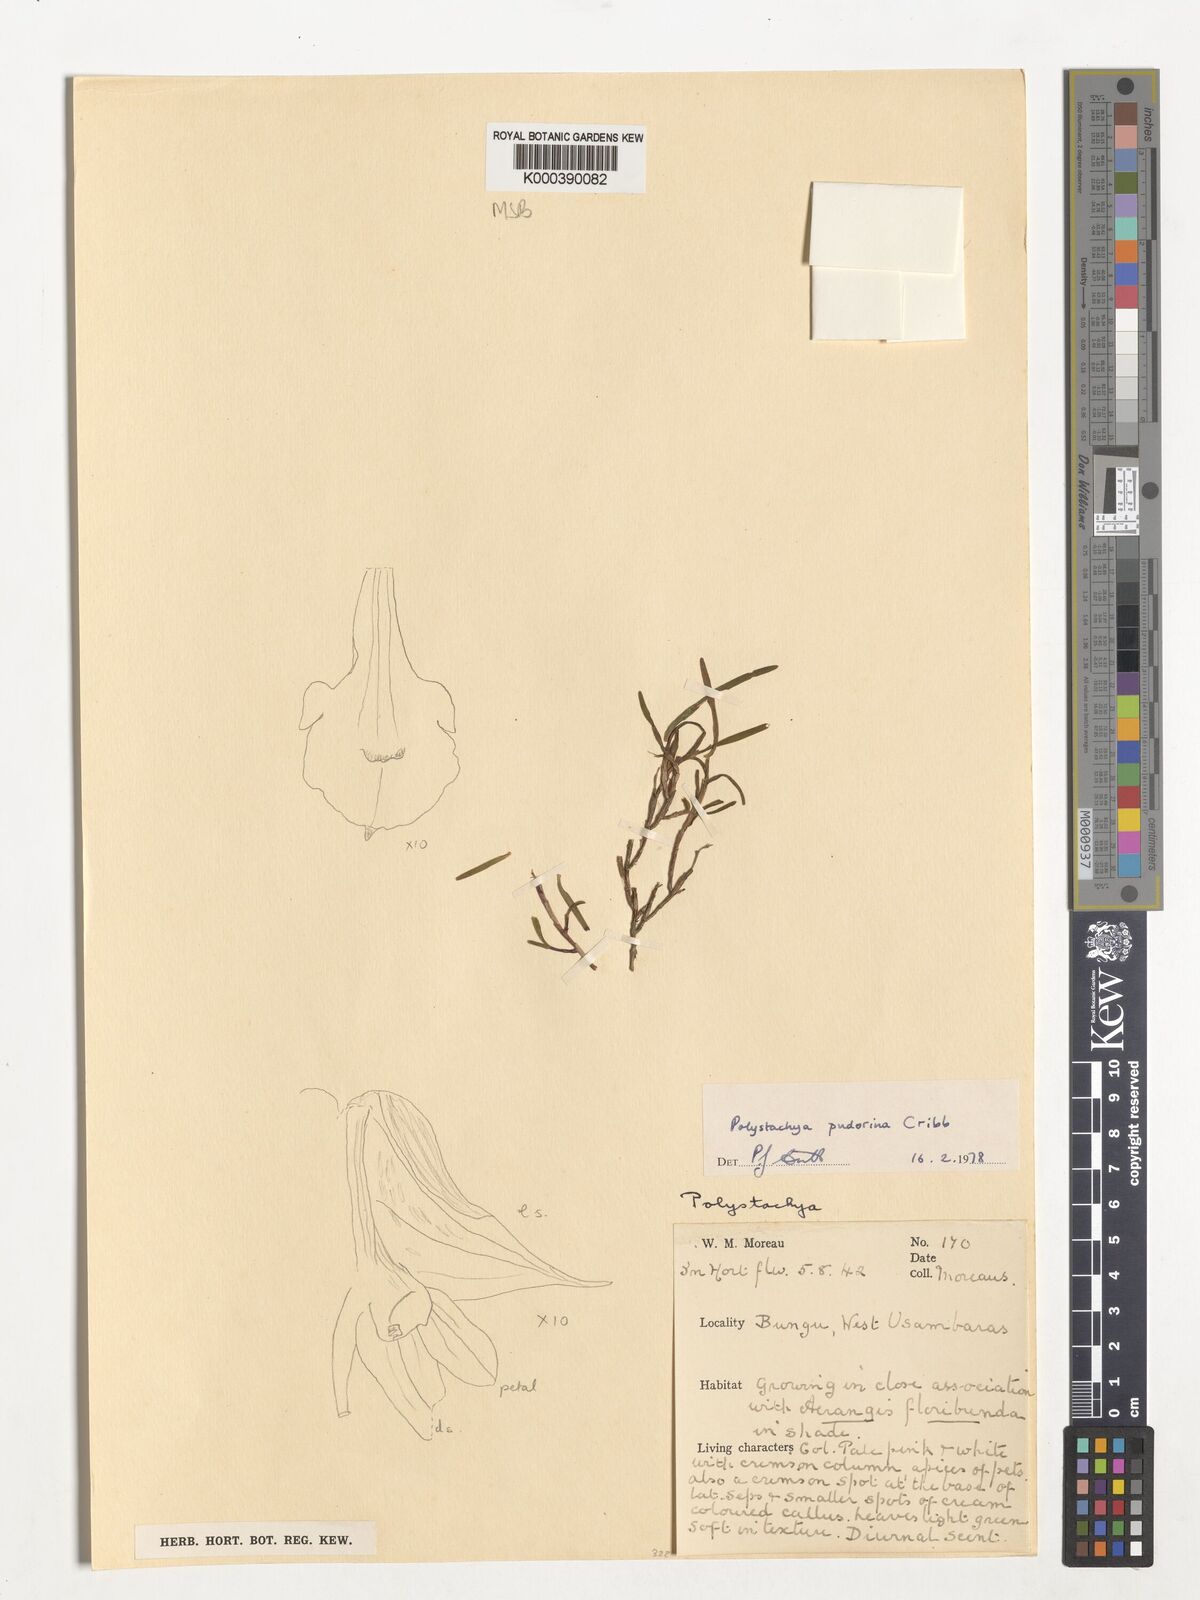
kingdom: Plantae
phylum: Tracheophyta
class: Liliopsida
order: Asparagales
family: Orchidaceae
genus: Polystachya
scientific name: Polystachya pudorina
